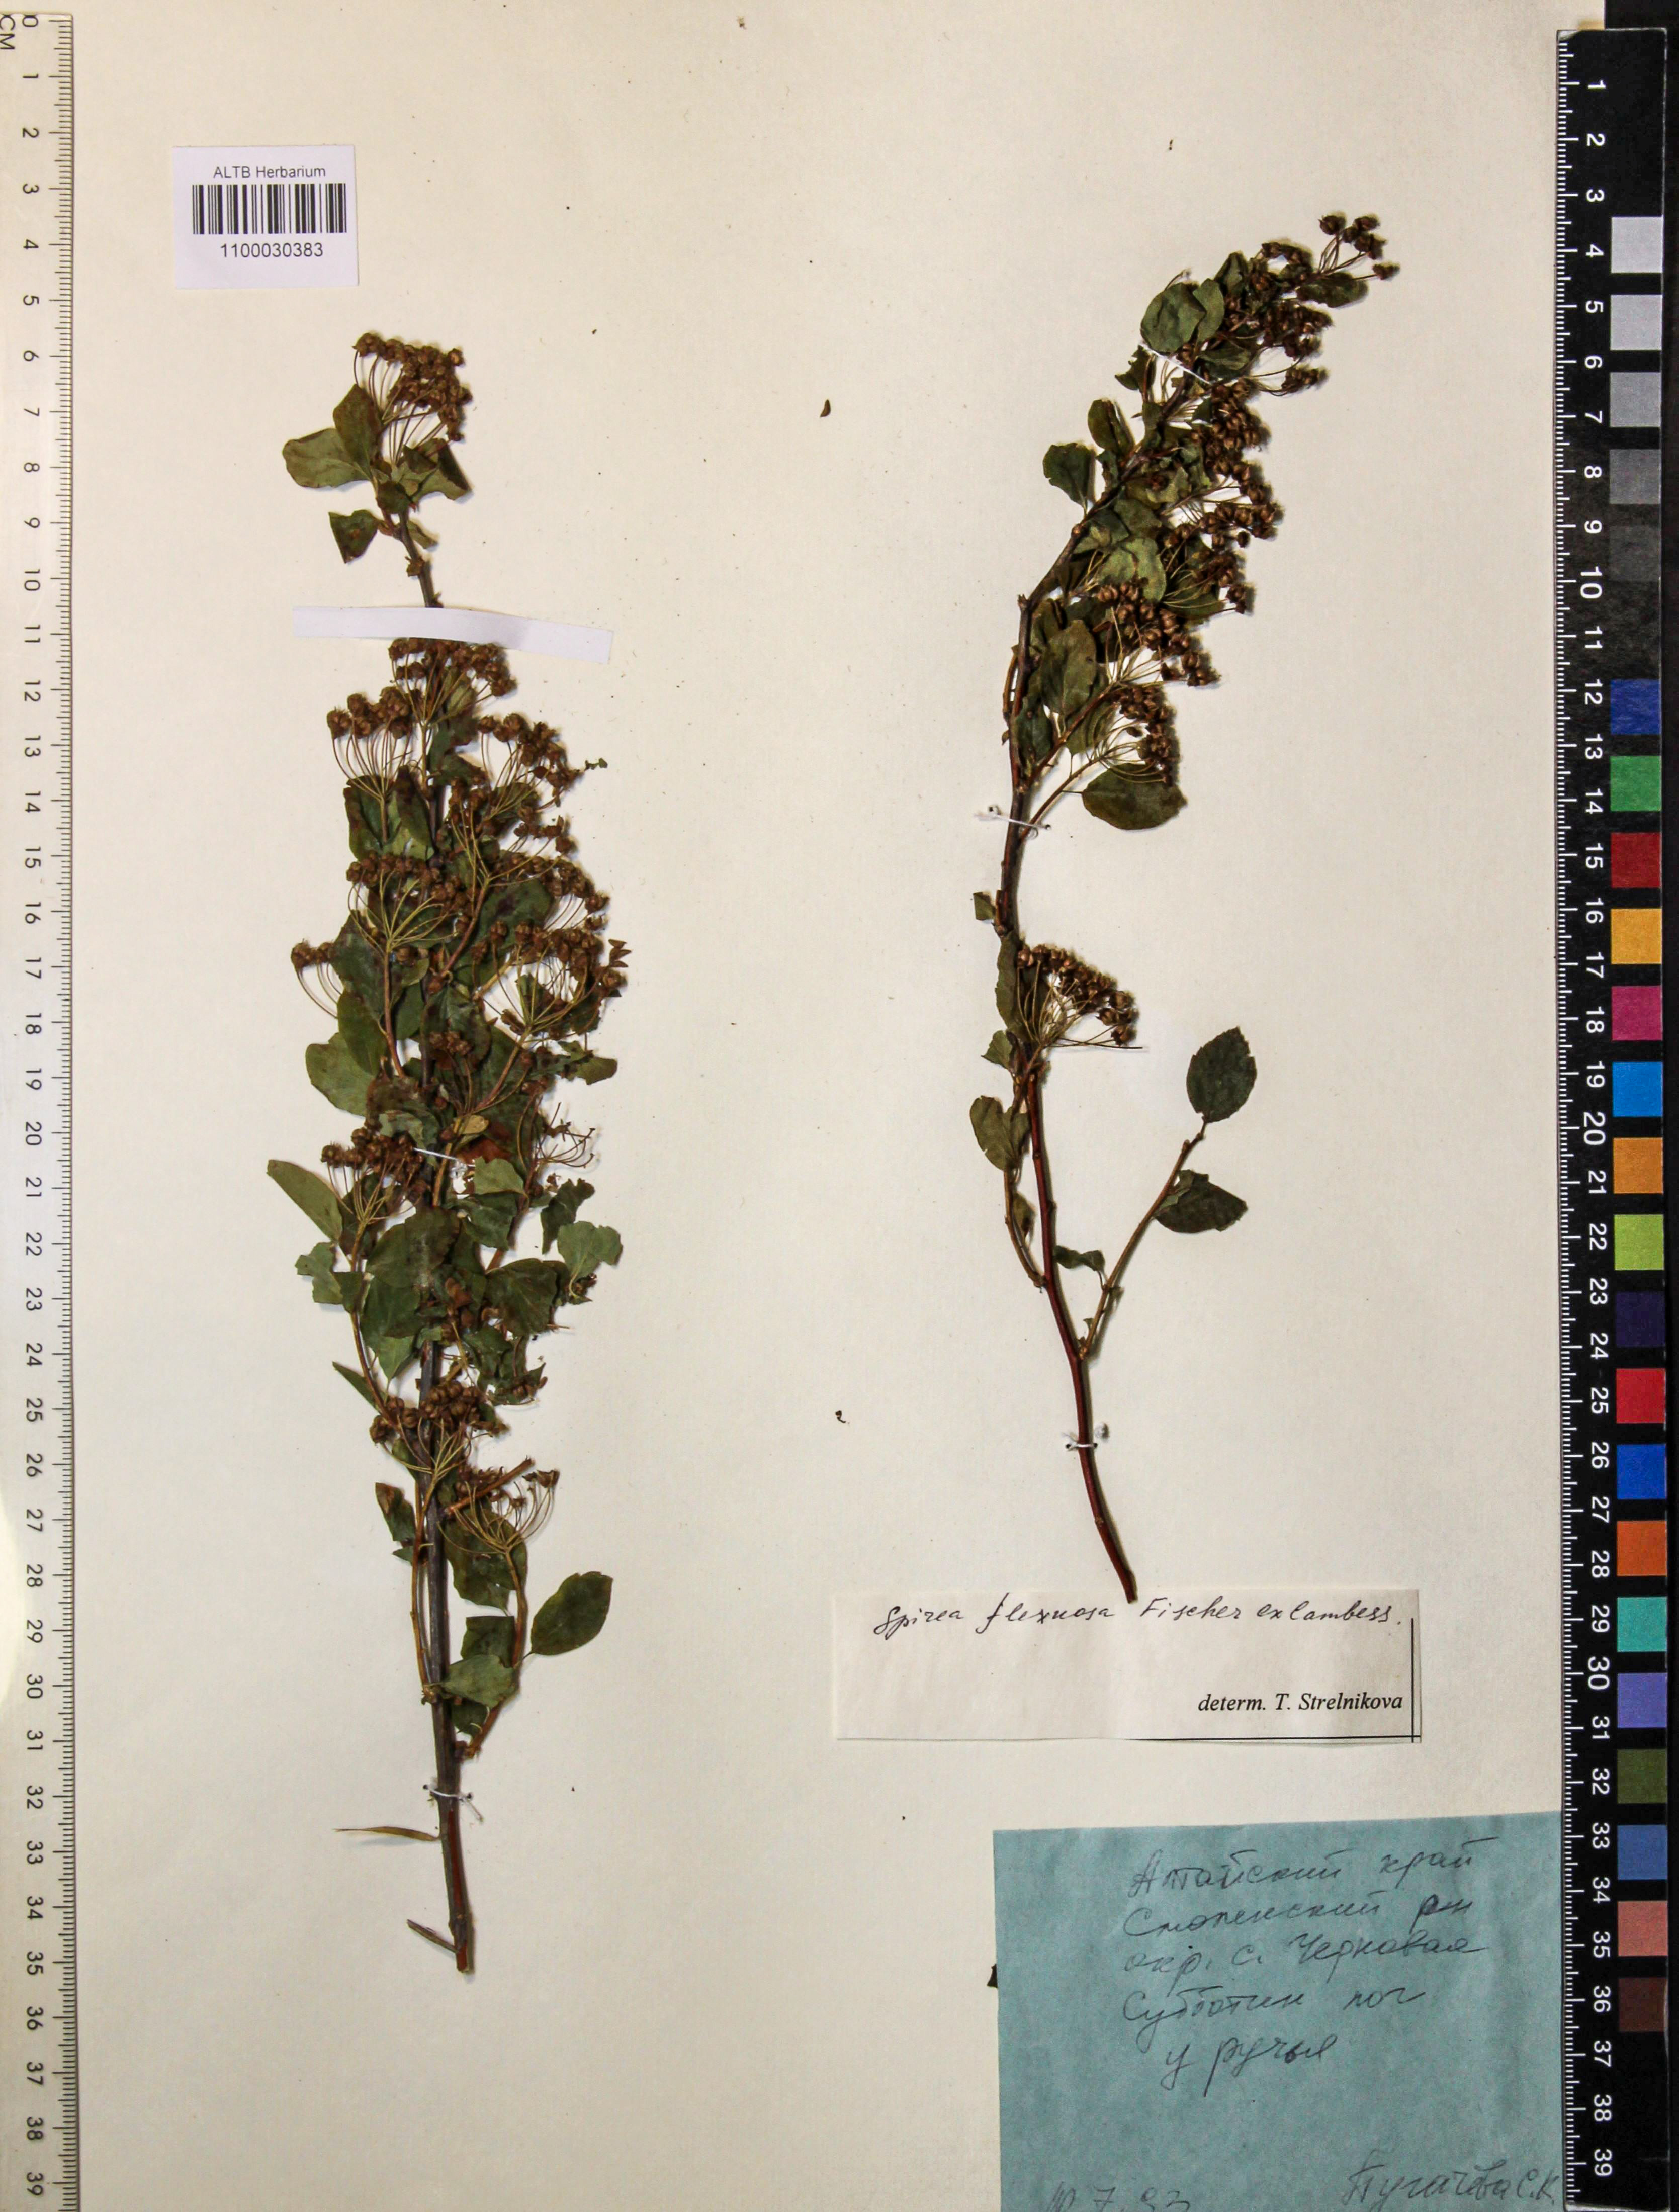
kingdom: Plantae
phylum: Tracheophyta
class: Magnoliopsida
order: Rosales
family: Rosaceae
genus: Spiraea
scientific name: Spiraea flexuosa
